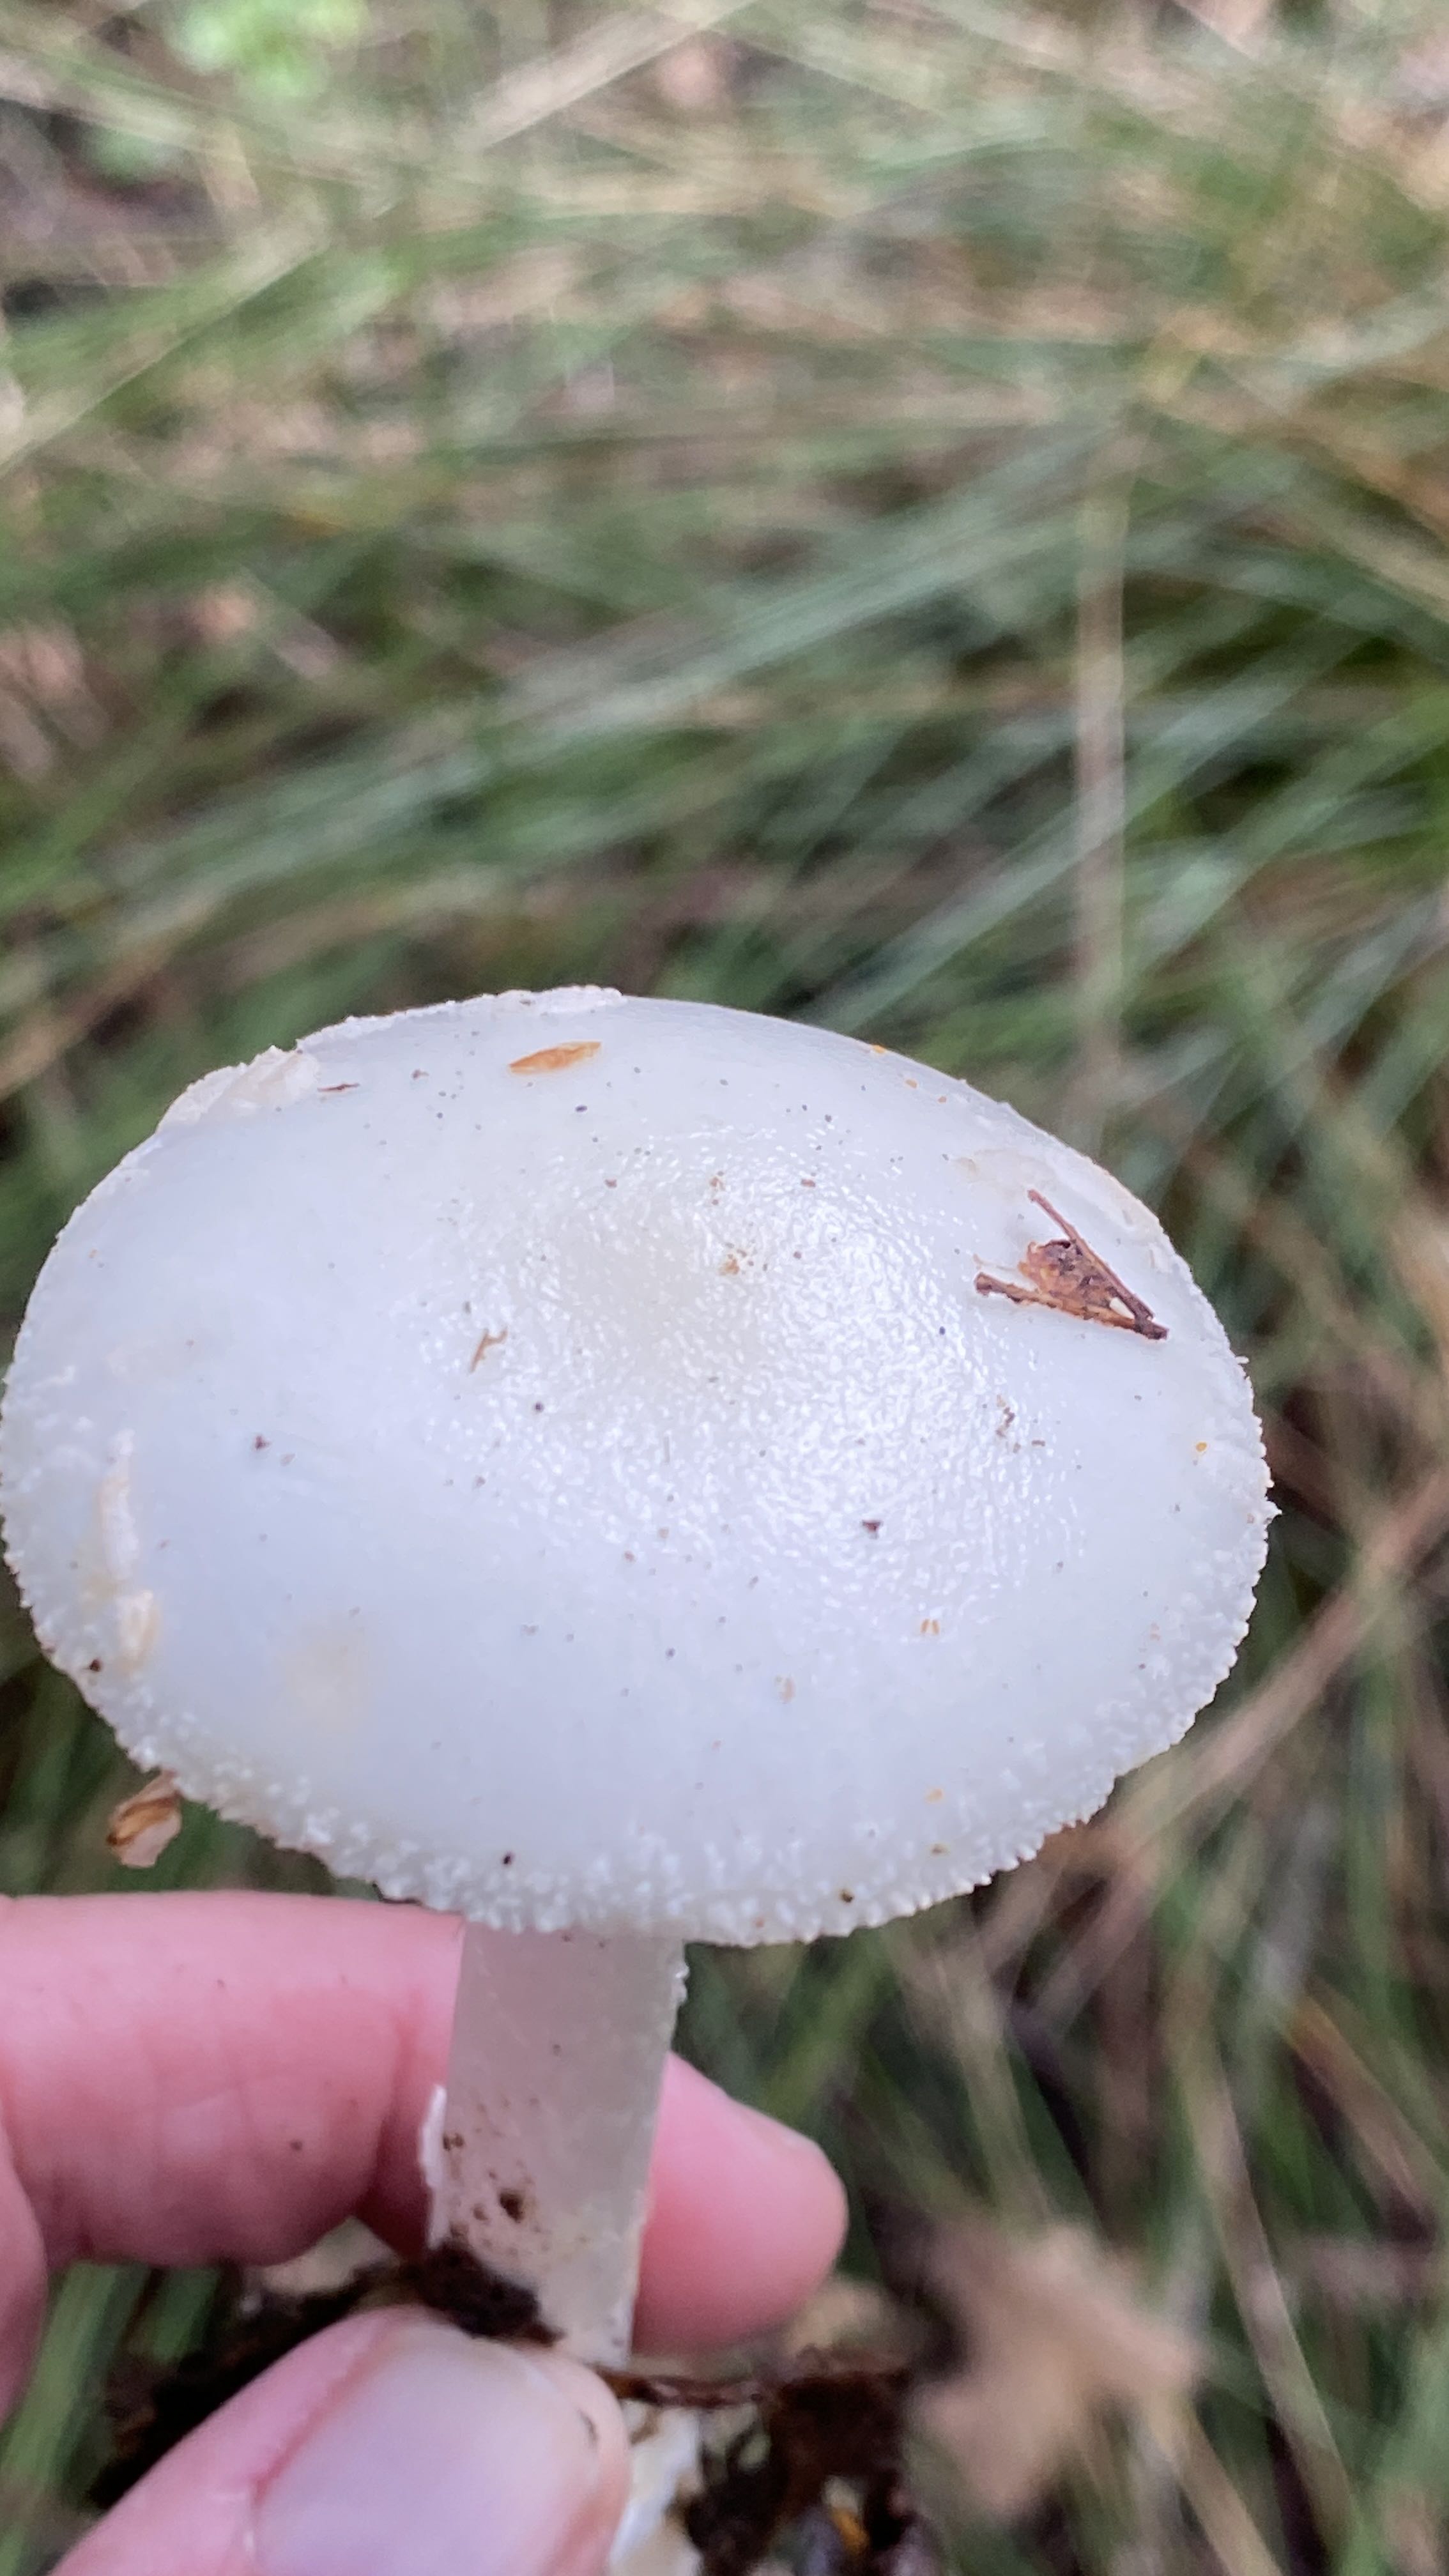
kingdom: Fungi
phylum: Basidiomycota
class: Agaricomycetes
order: Agaricales
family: Amanitaceae
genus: Amanita
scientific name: Amanita citrina
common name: False death-cap
